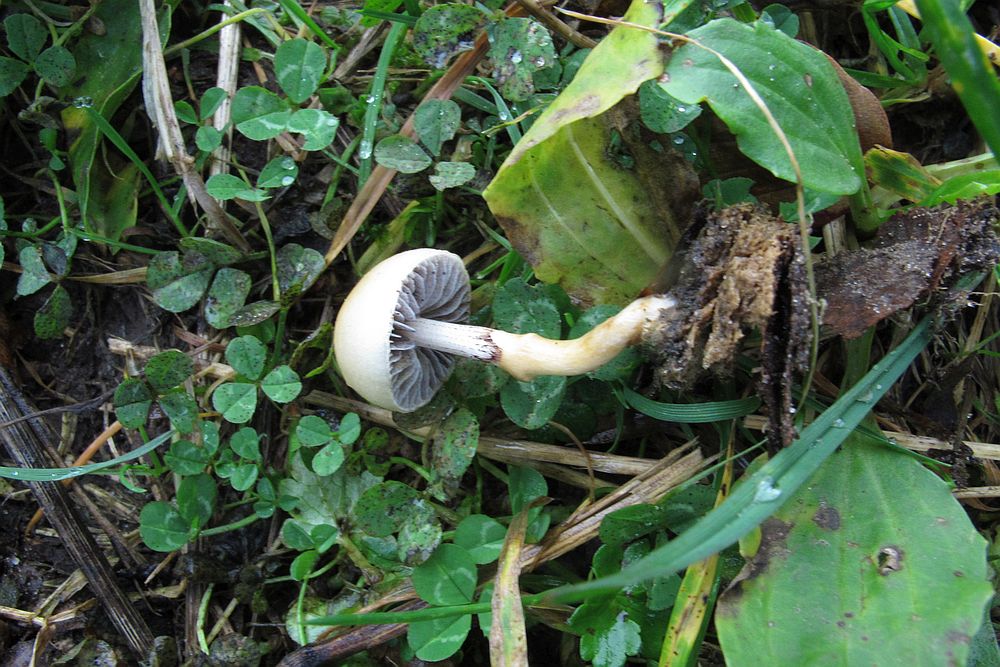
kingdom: Fungi
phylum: Basidiomycota
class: Agaricomycetes
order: Agaricales
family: Strophariaceae
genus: Protostropharia
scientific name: Protostropharia semiglobata
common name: halvkugleformet bredblad
